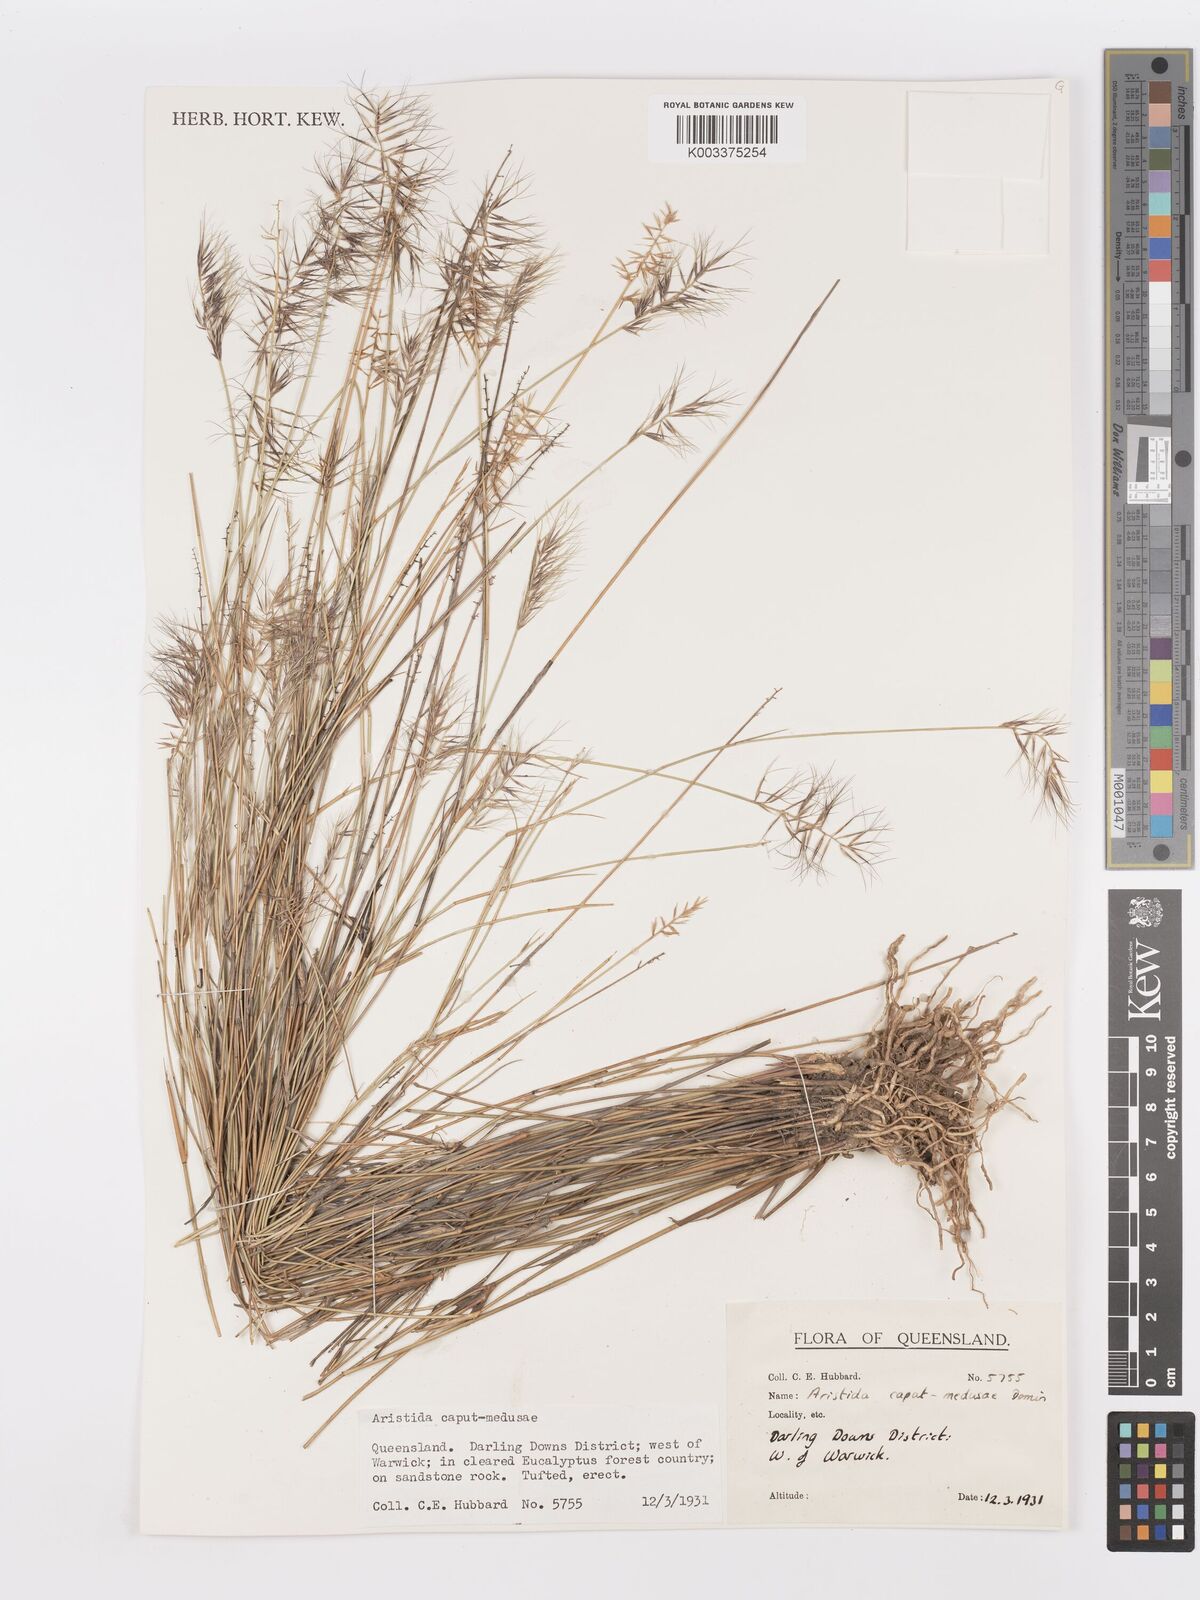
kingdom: Plantae
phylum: Tracheophyta
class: Liliopsida
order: Poales
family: Poaceae
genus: Aristida
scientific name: Aristida caput-medusae
